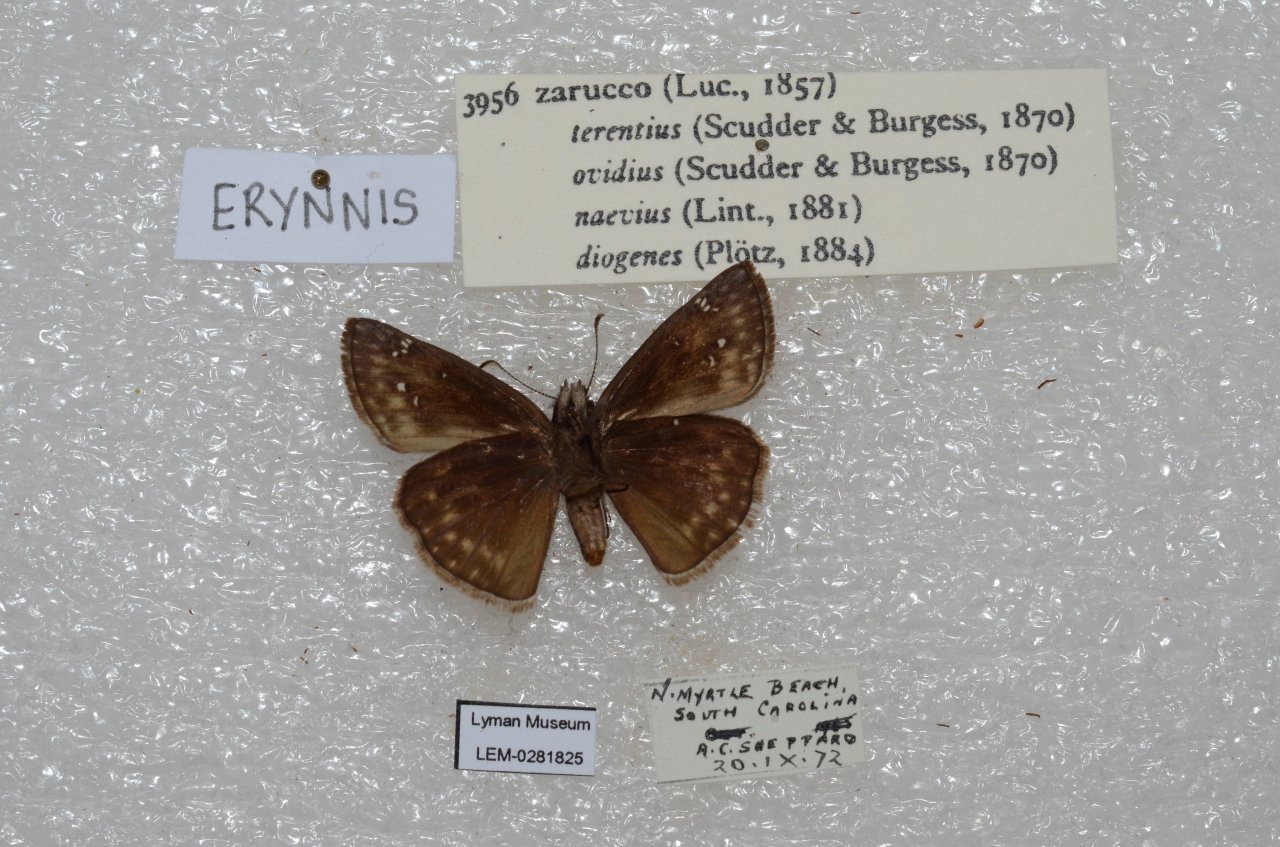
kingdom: Animalia
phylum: Arthropoda
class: Insecta
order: Lepidoptera
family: Pieridae
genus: Pyrisitia
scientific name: Pyrisitia lisa
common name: Little Yellow
